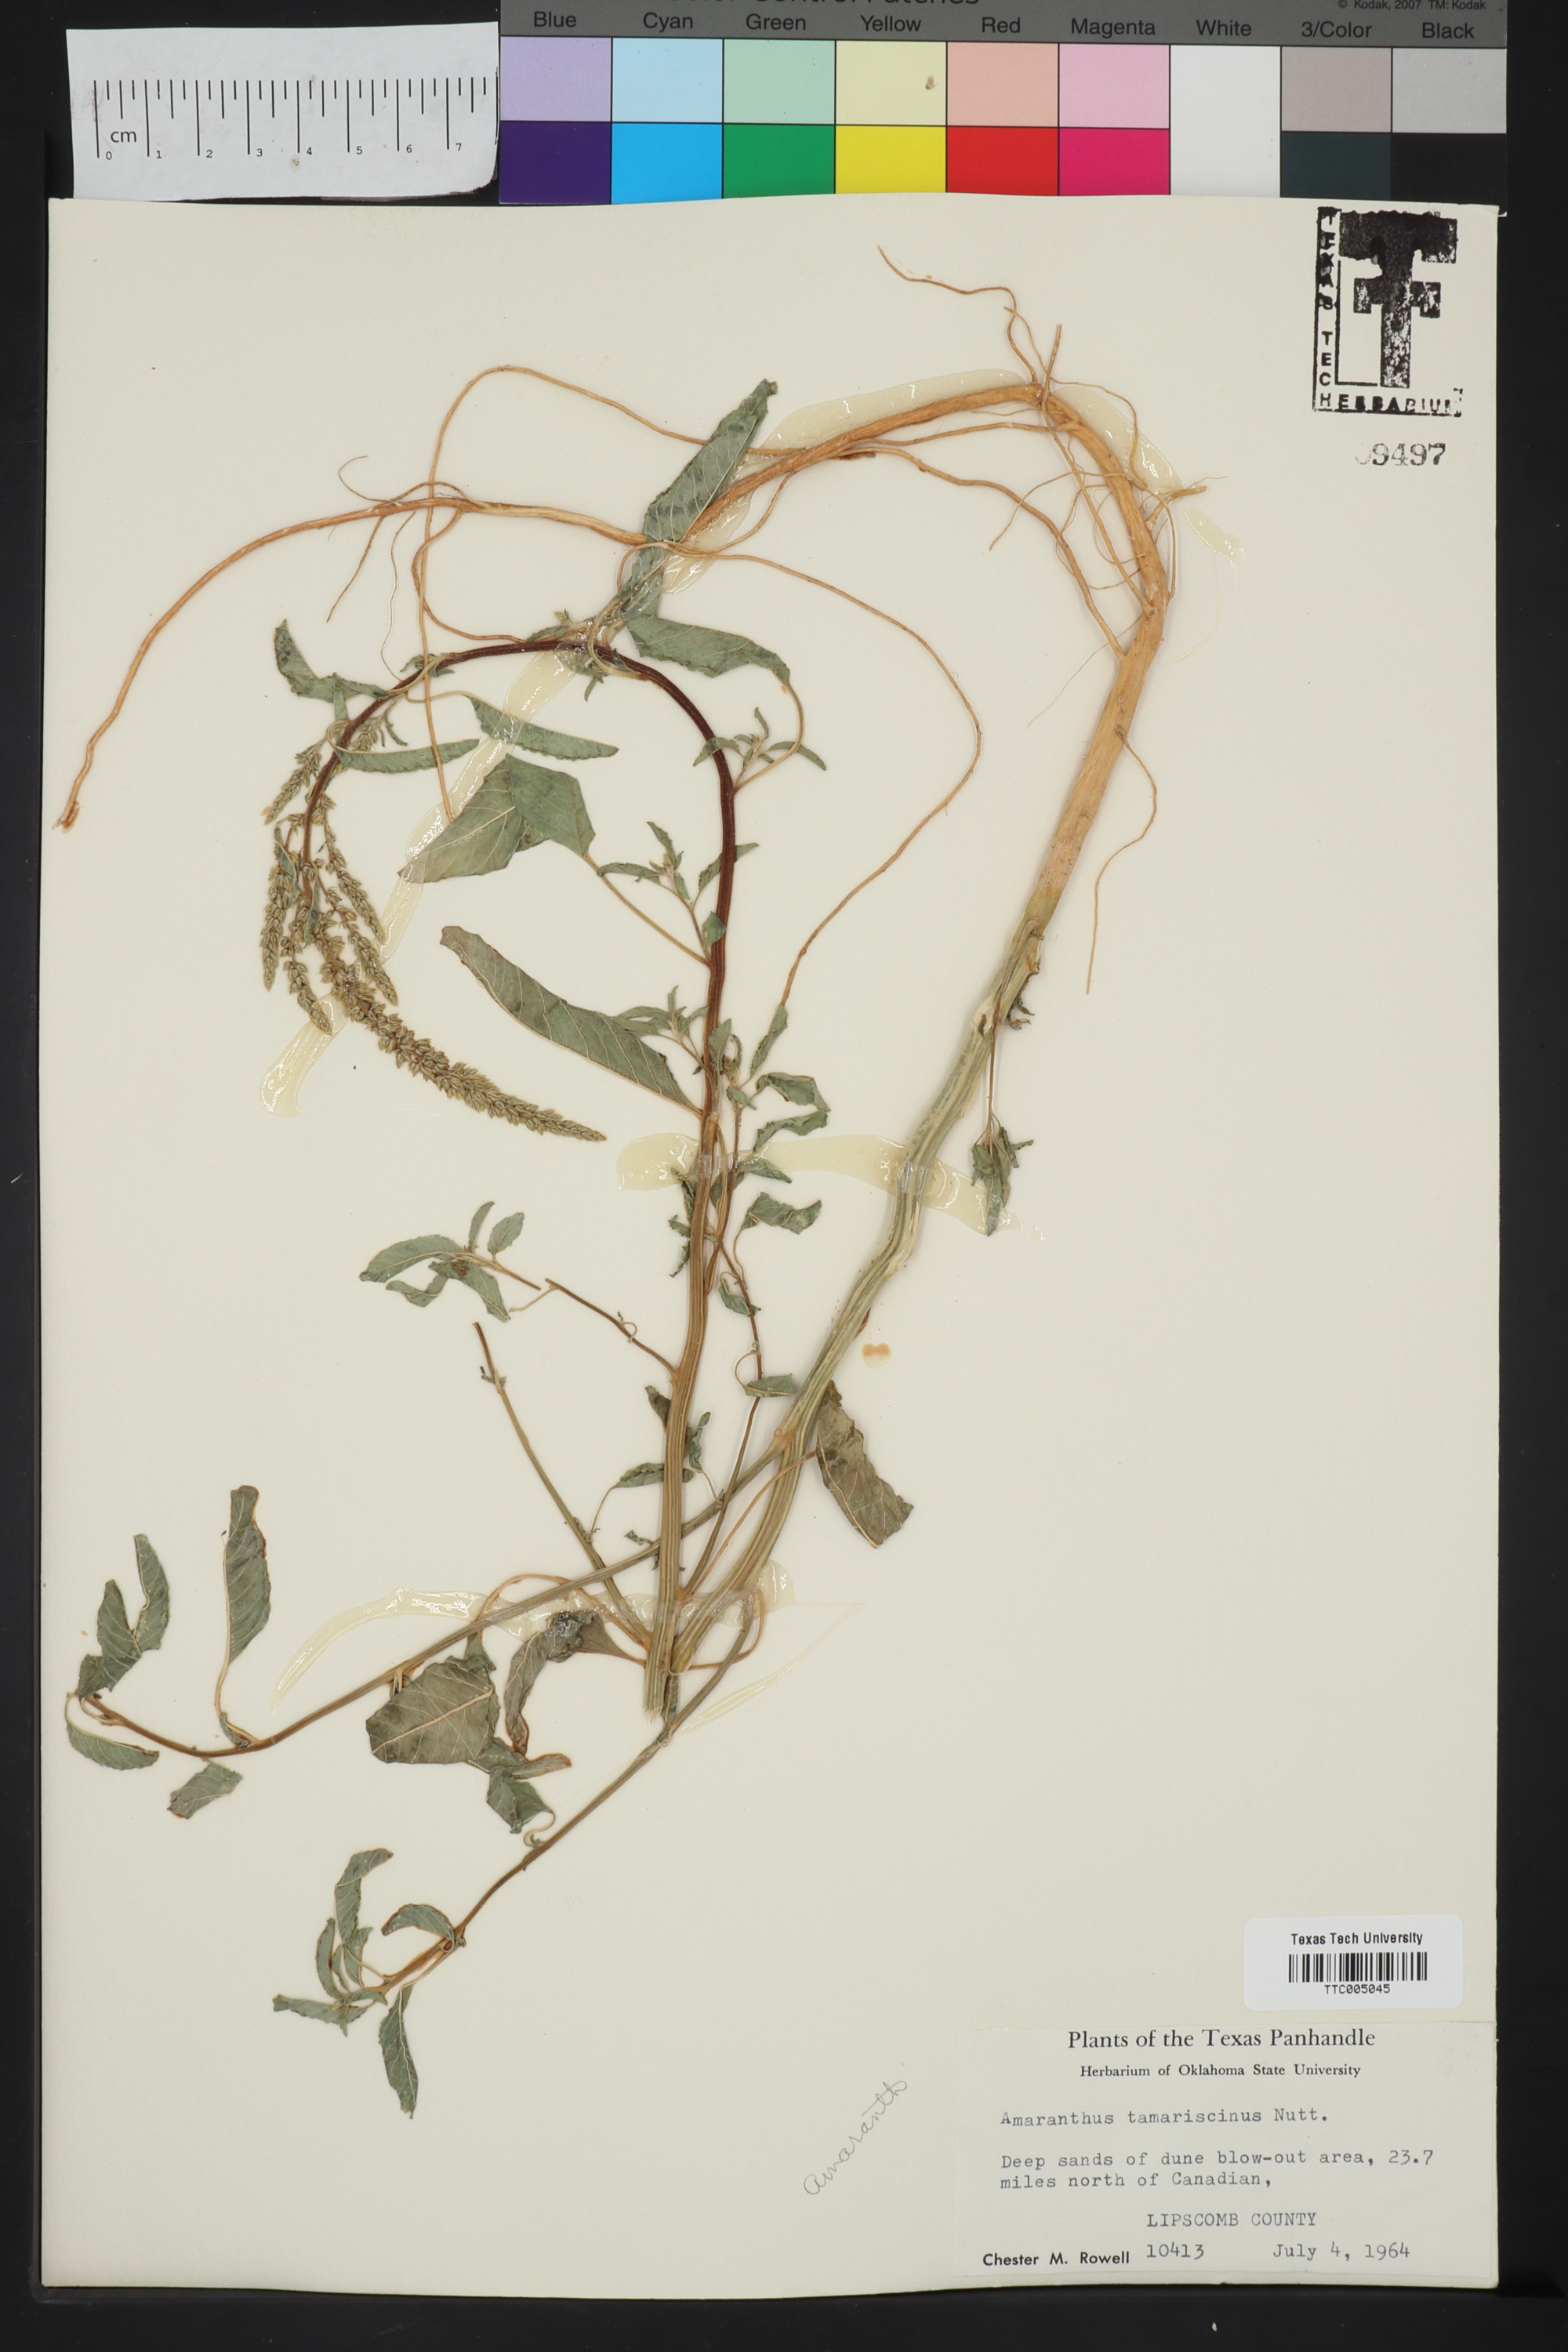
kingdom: Plantae
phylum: Tracheophyta
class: Magnoliopsida
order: Caryophyllales
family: Amaranthaceae
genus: Amaranthus
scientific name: Amaranthus tamariscinus
